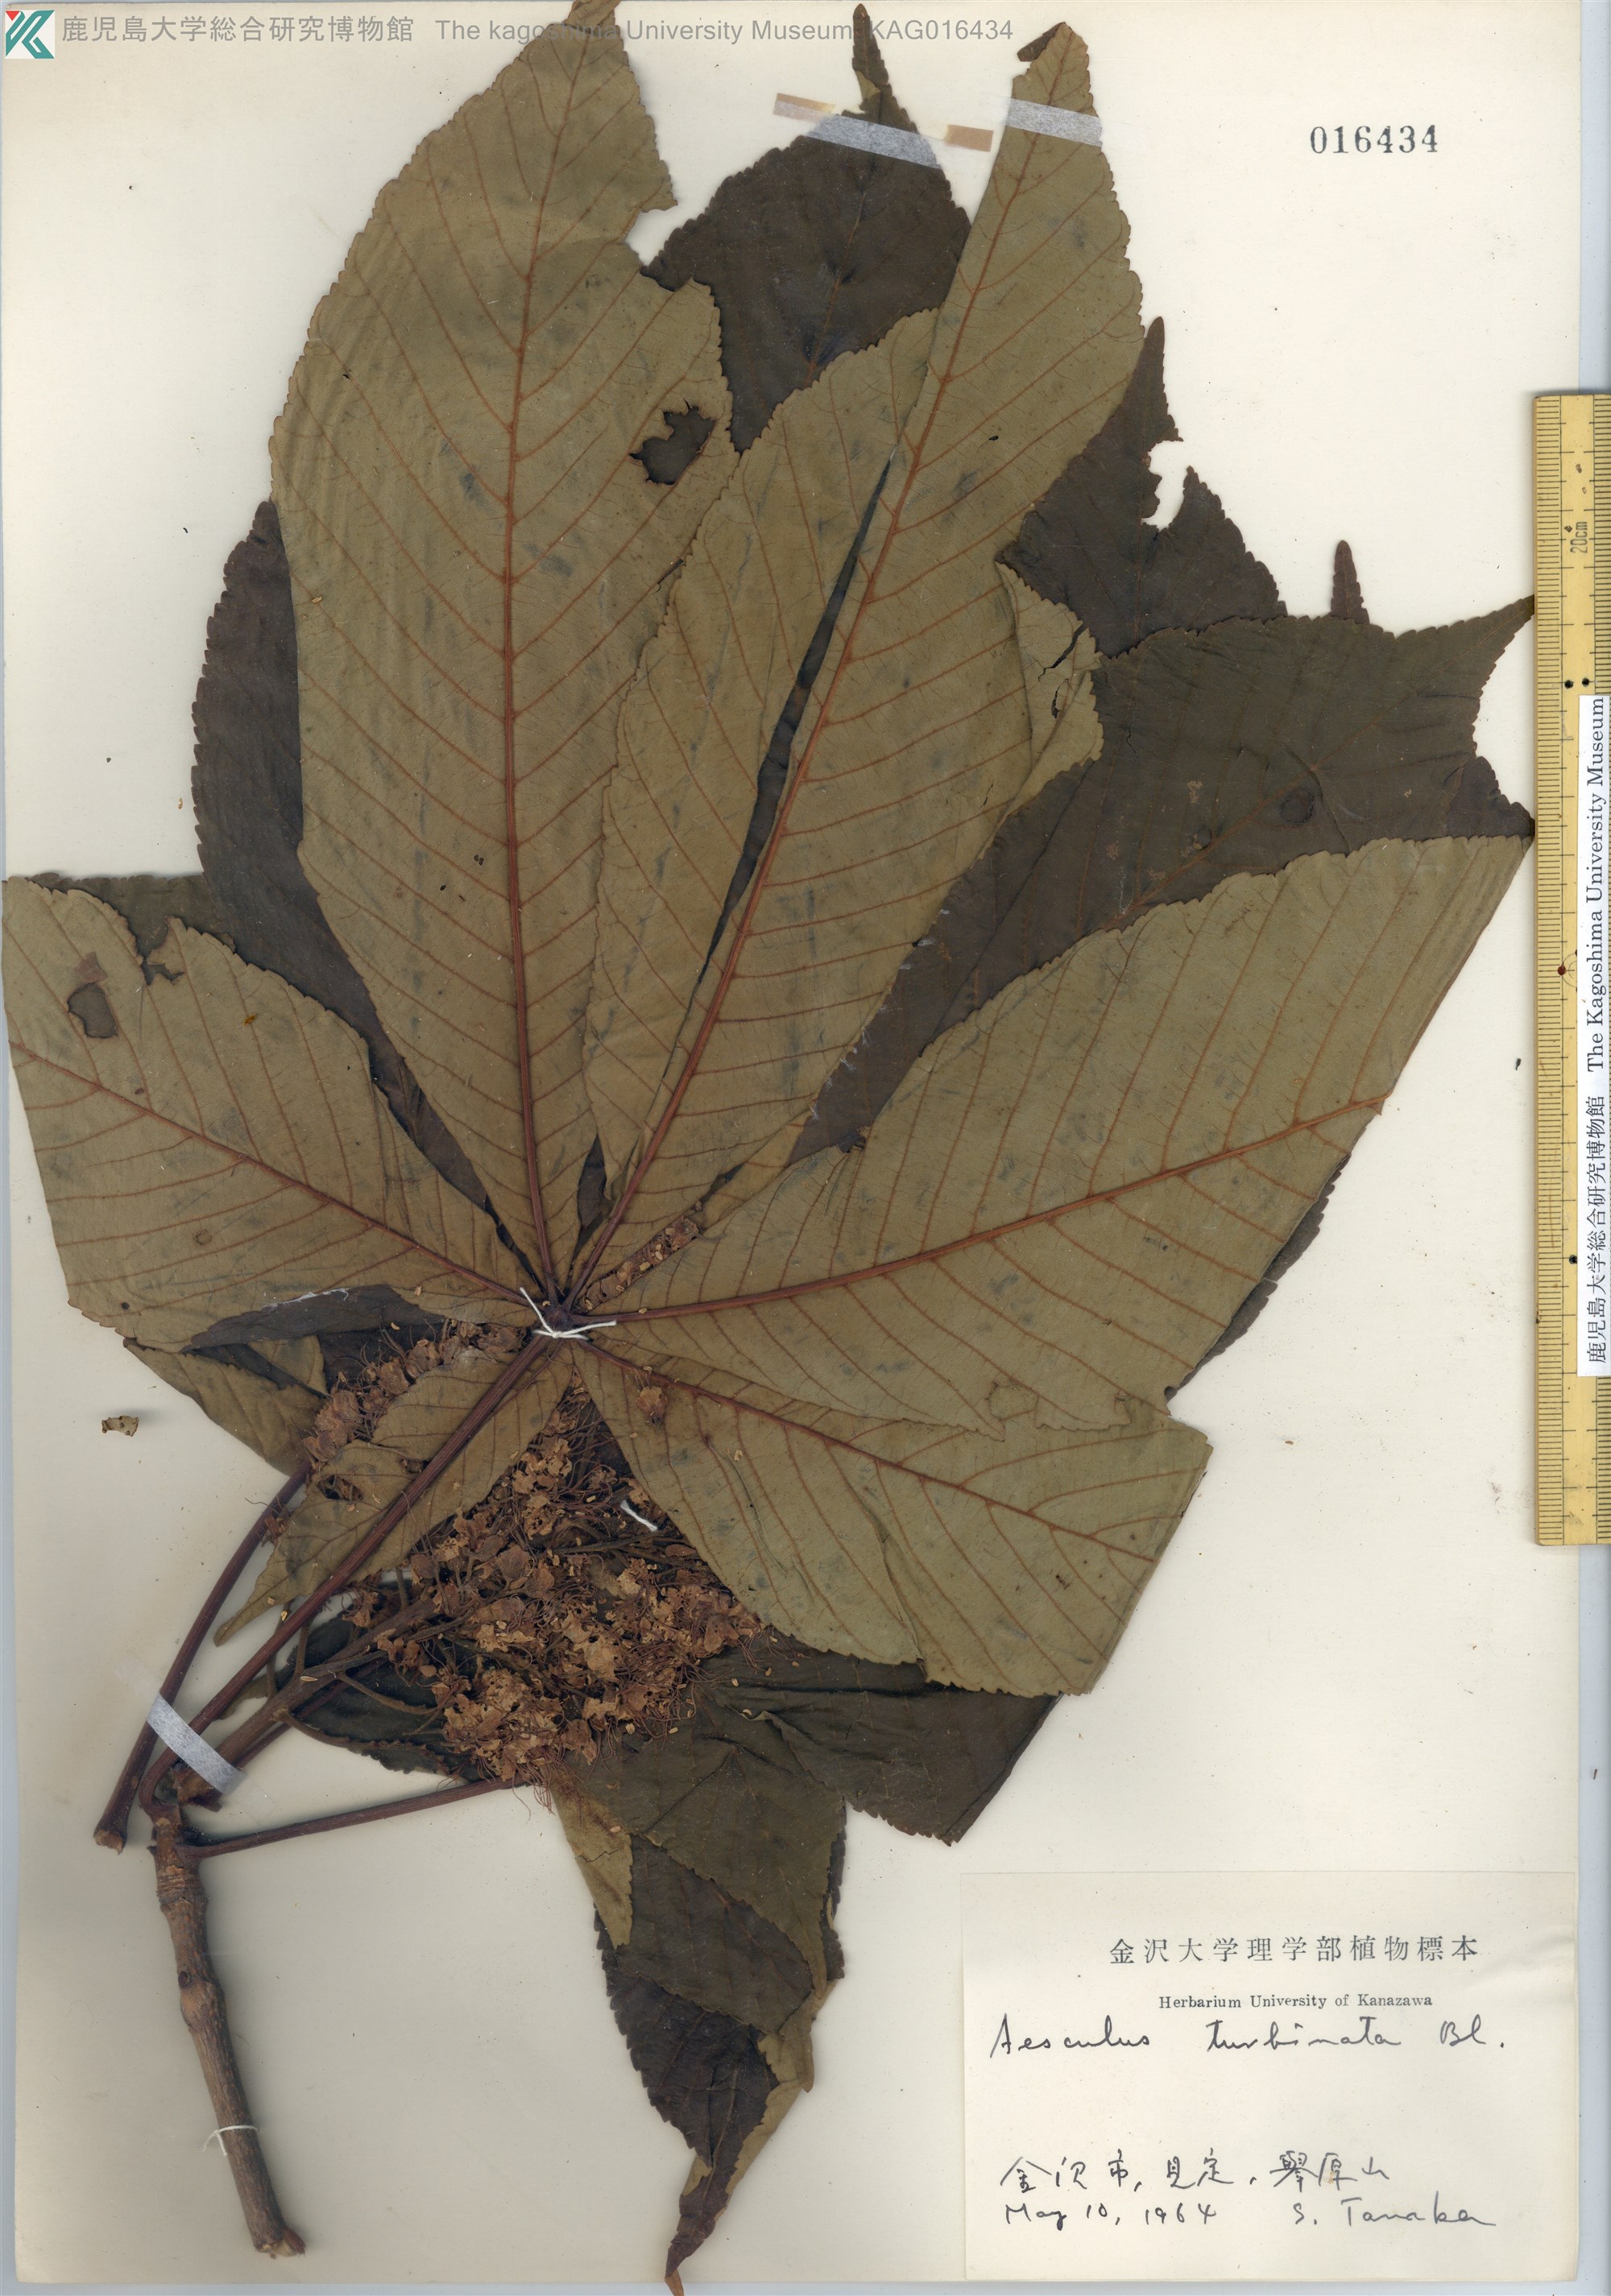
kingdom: Plantae
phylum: Tracheophyta
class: Magnoliopsida
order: Sapindales
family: Sapindaceae
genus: Aesculus
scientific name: Aesculus turbinata
